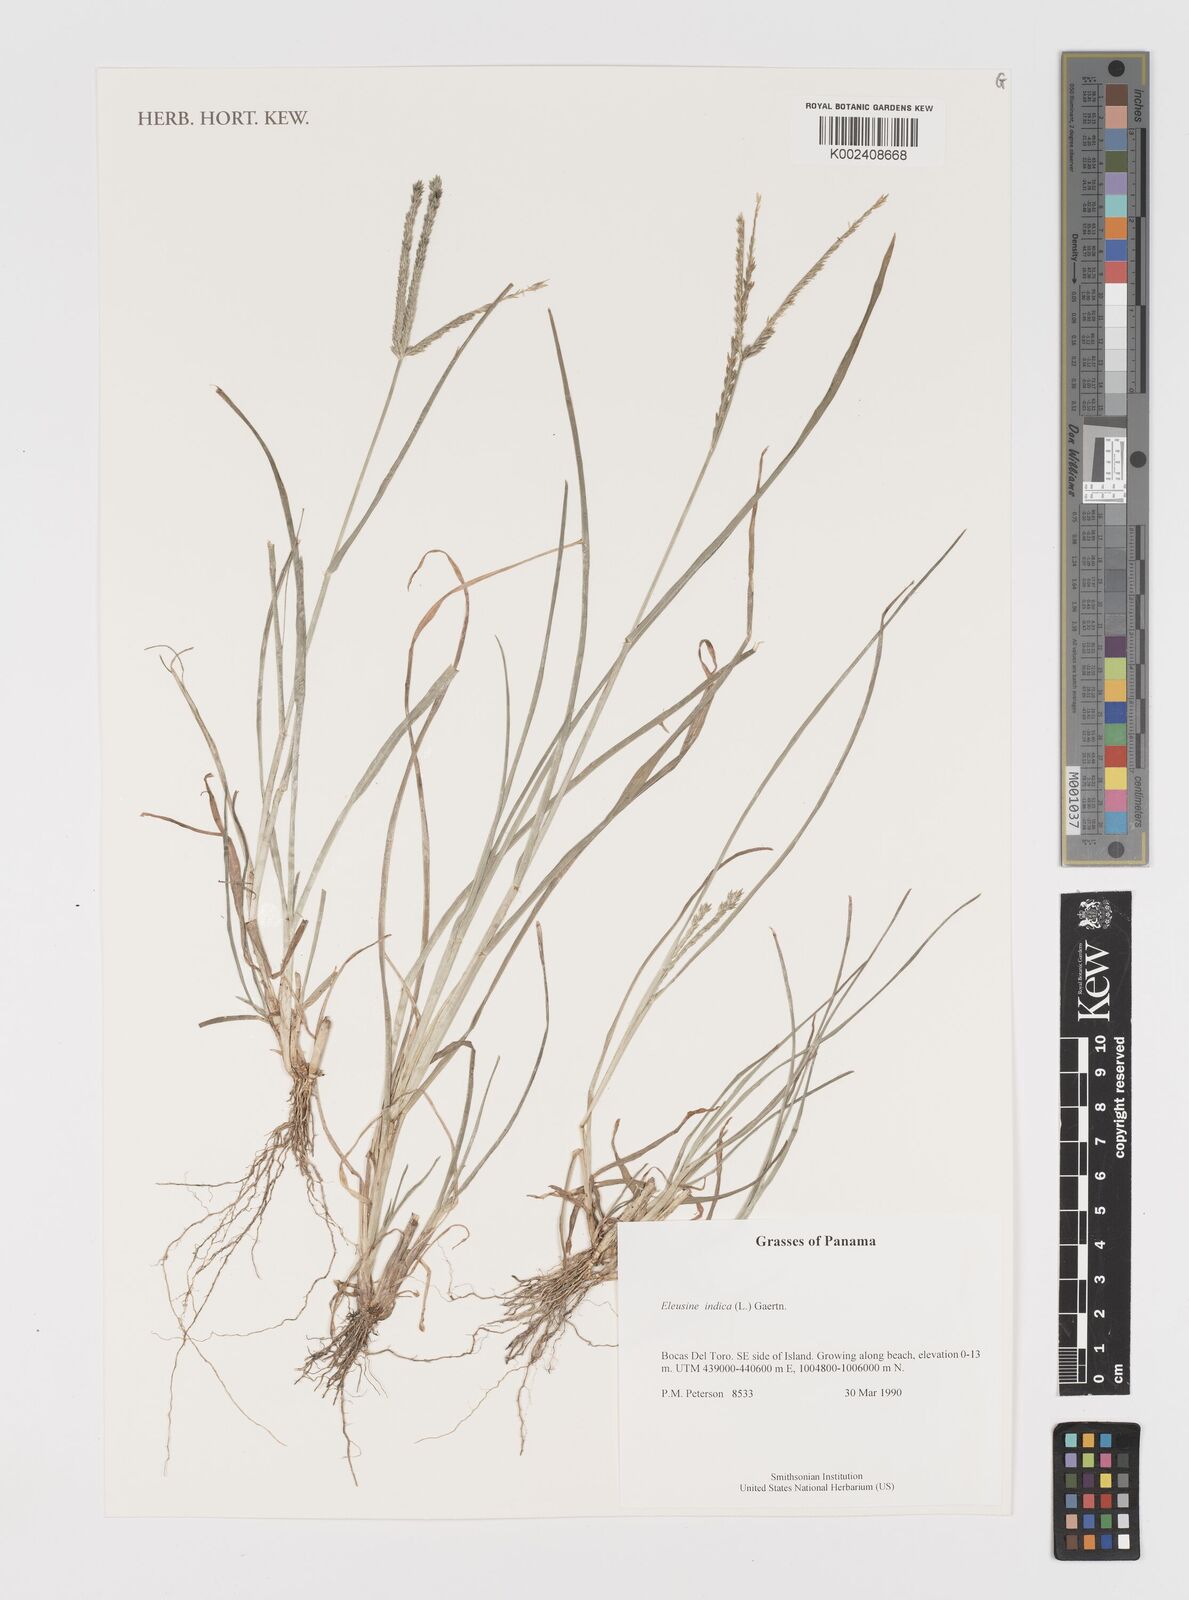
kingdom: Plantae
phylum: Tracheophyta
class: Liliopsida
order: Poales
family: Poaceae
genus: Eleusine
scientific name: Eleusine indica
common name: Yard-grass
